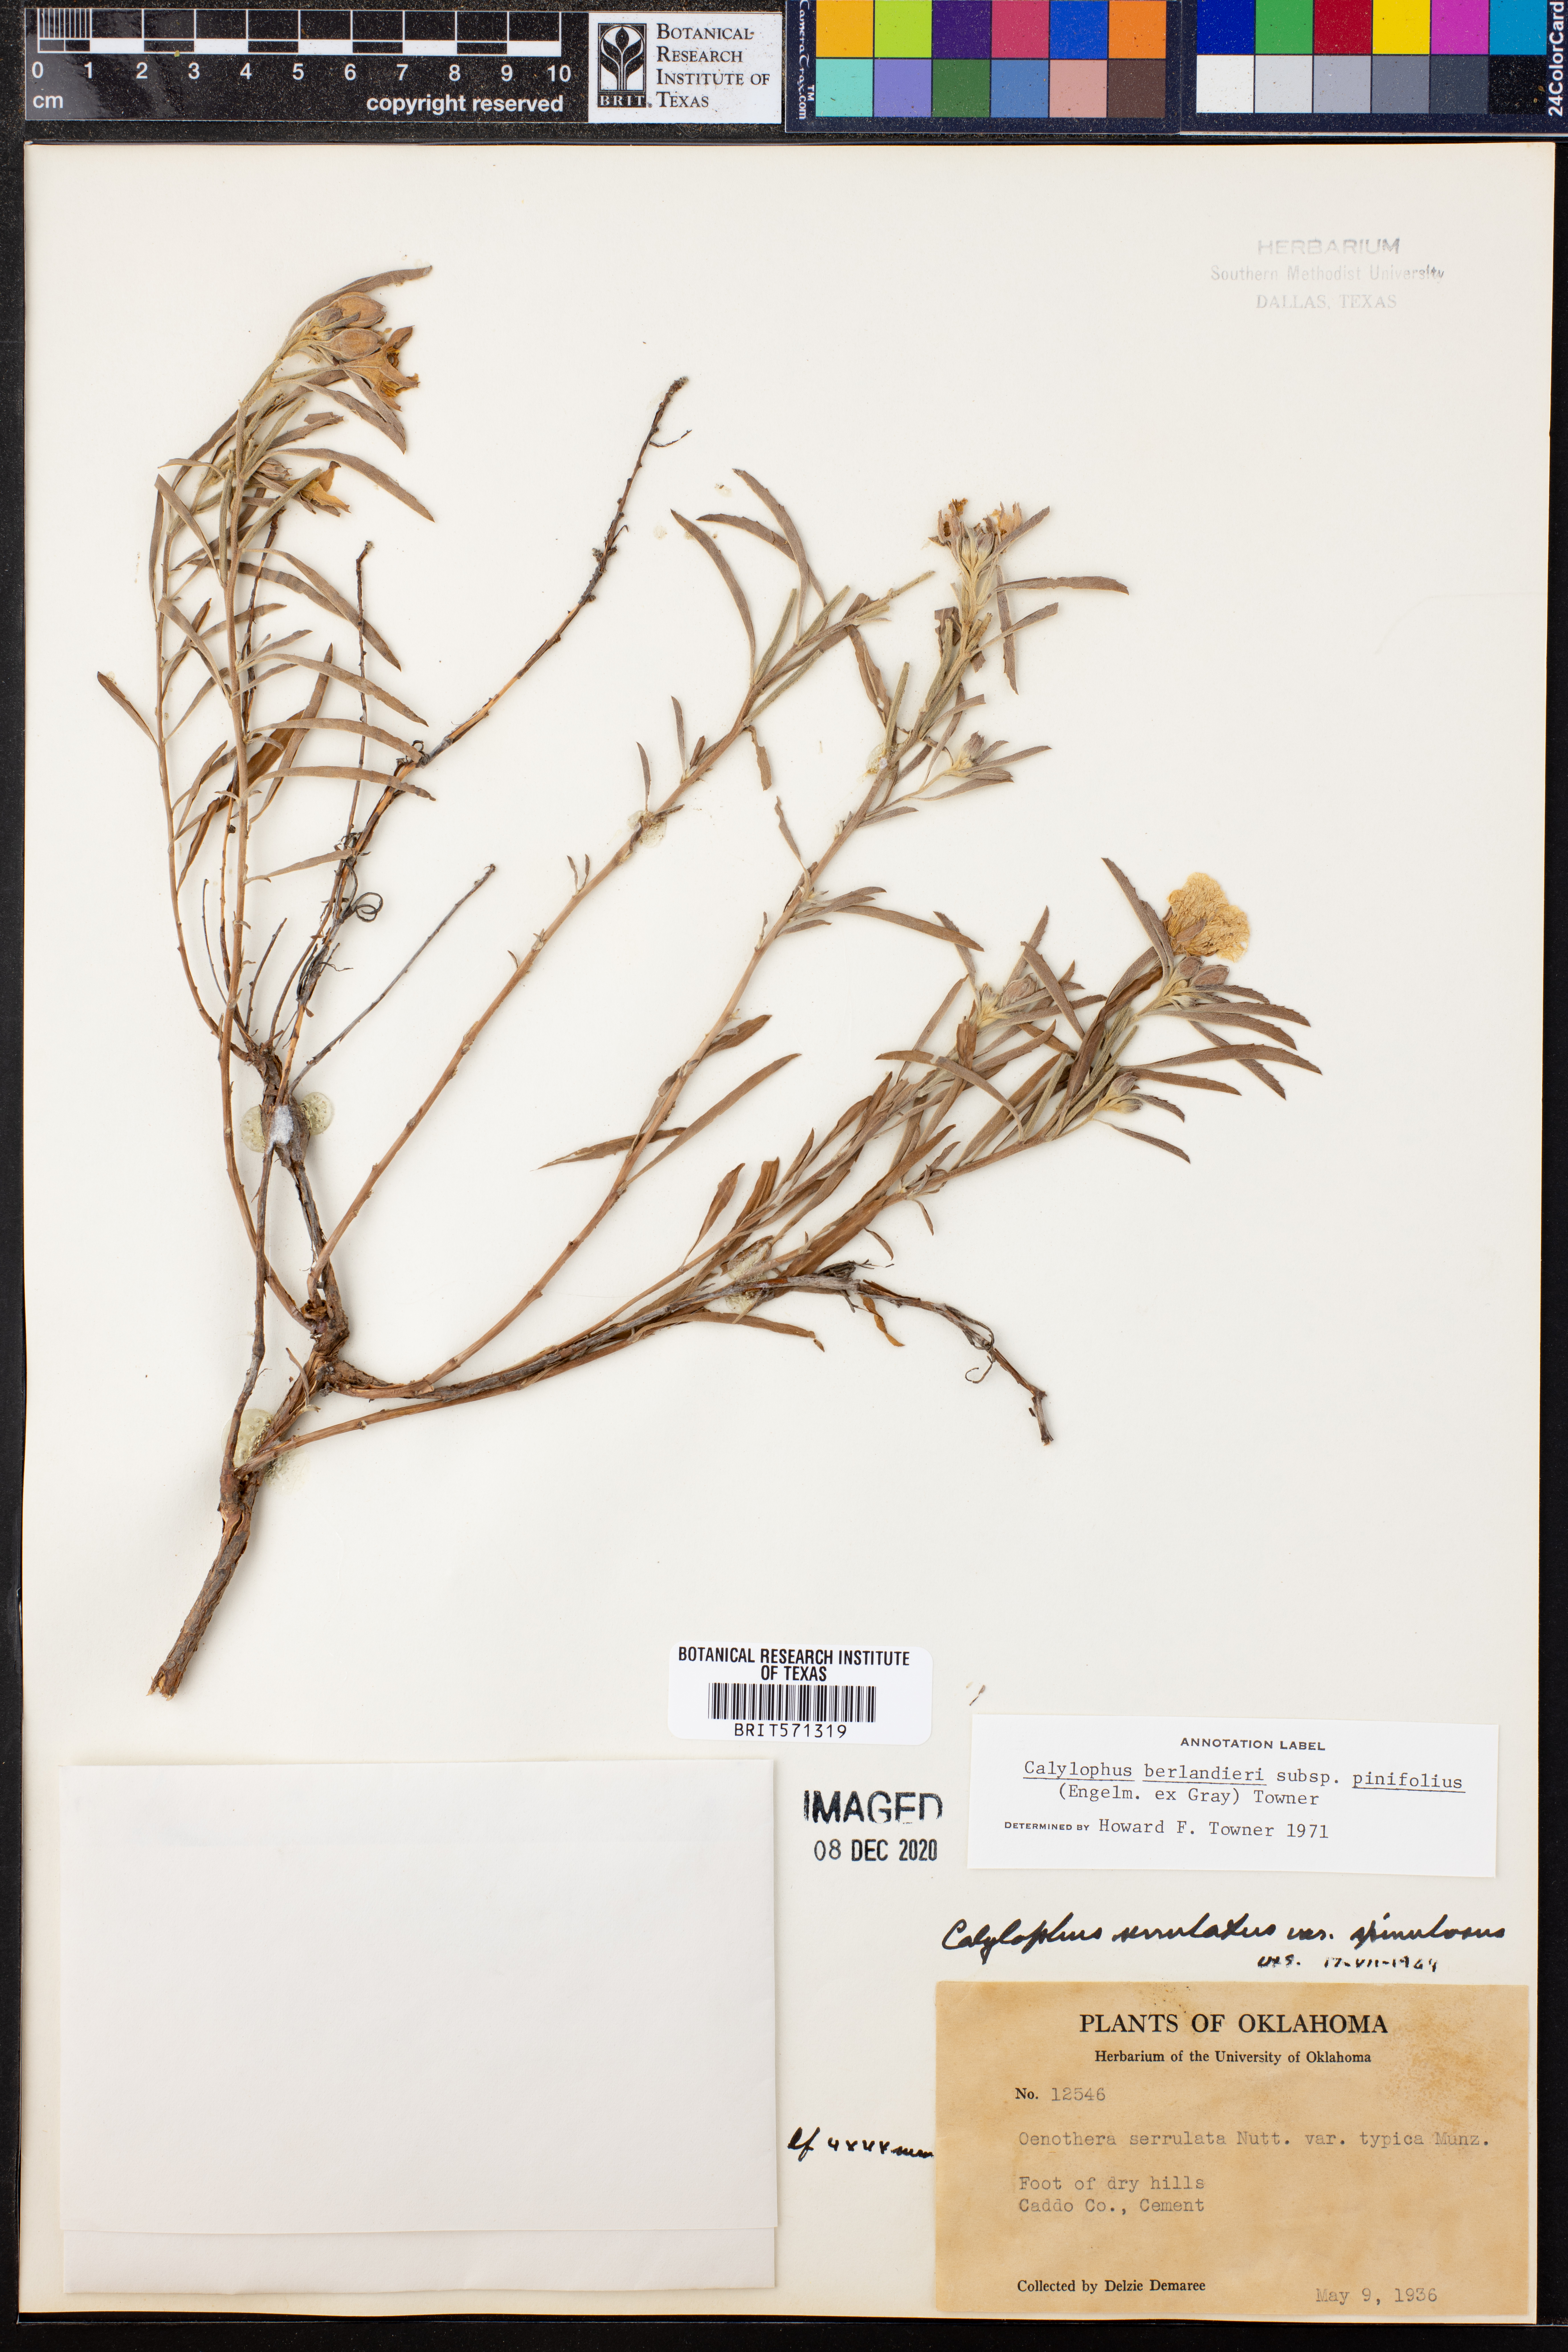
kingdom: Plantae
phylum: Tracheophyta
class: Magnoliopsida
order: Myrtales
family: Onagraceae
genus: Oenothera
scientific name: Oenothera capillifolia
